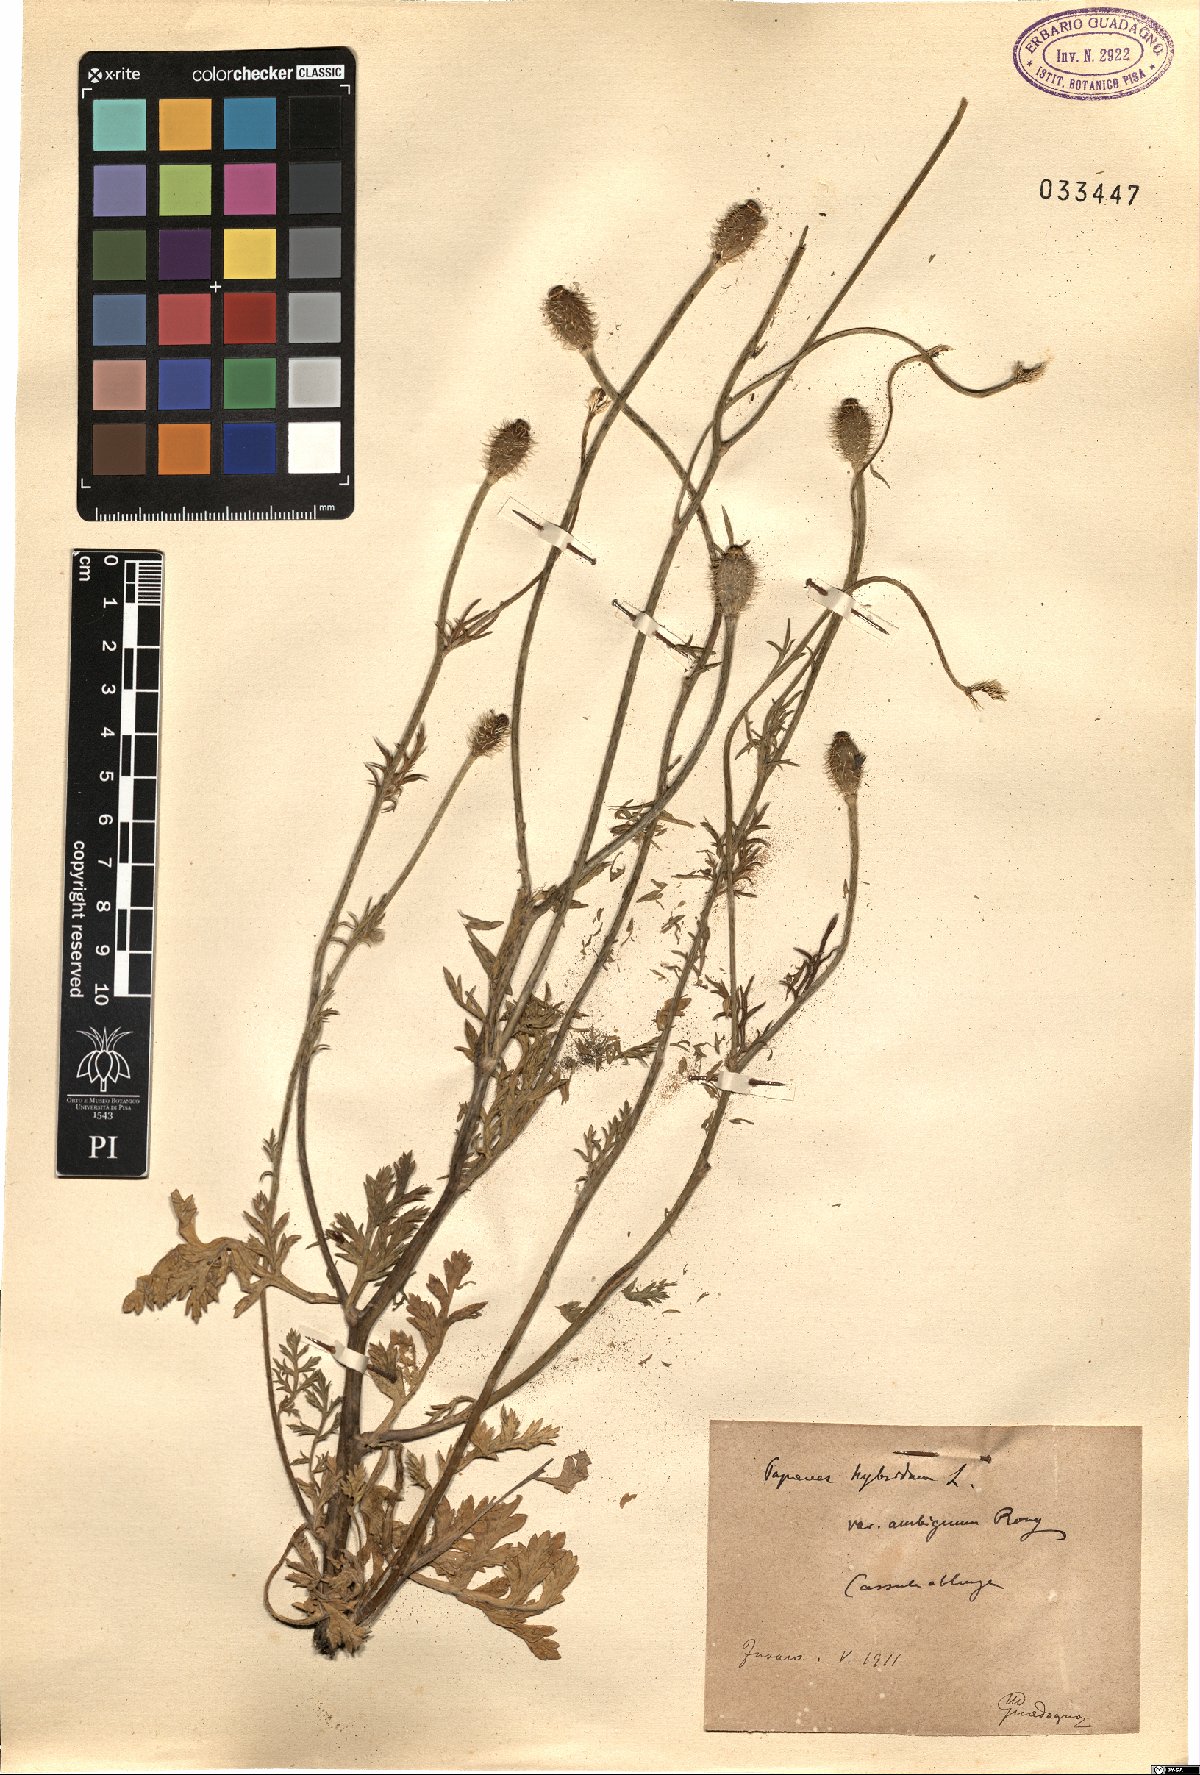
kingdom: Plantae
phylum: Tracheophyta
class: Magnoliopsida
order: Ranunculales
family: Papaveraceae
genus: Roemeria
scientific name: Roemeria hispida
